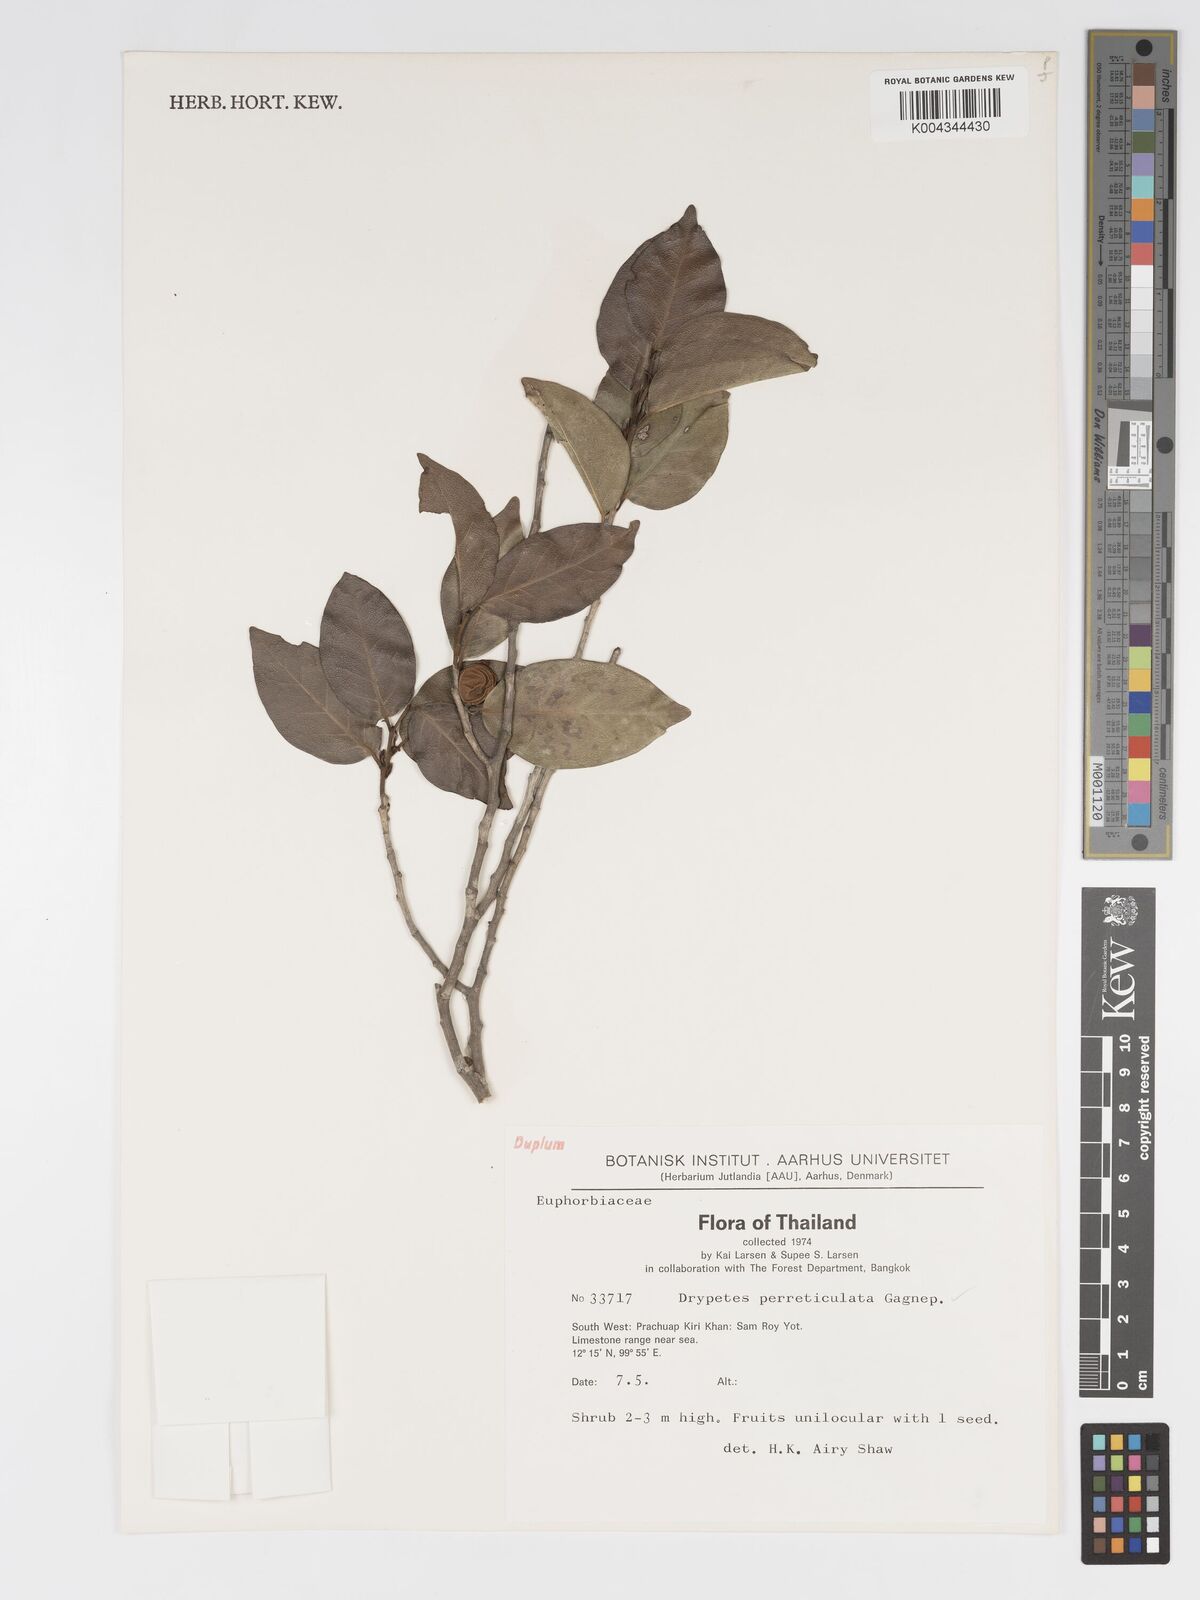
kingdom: Plantae
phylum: Tracheophyta
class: Magnoliopsida
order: Malpighiales
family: Putranjivaceae
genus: Drypetes
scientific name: Drypetes perreticulata
